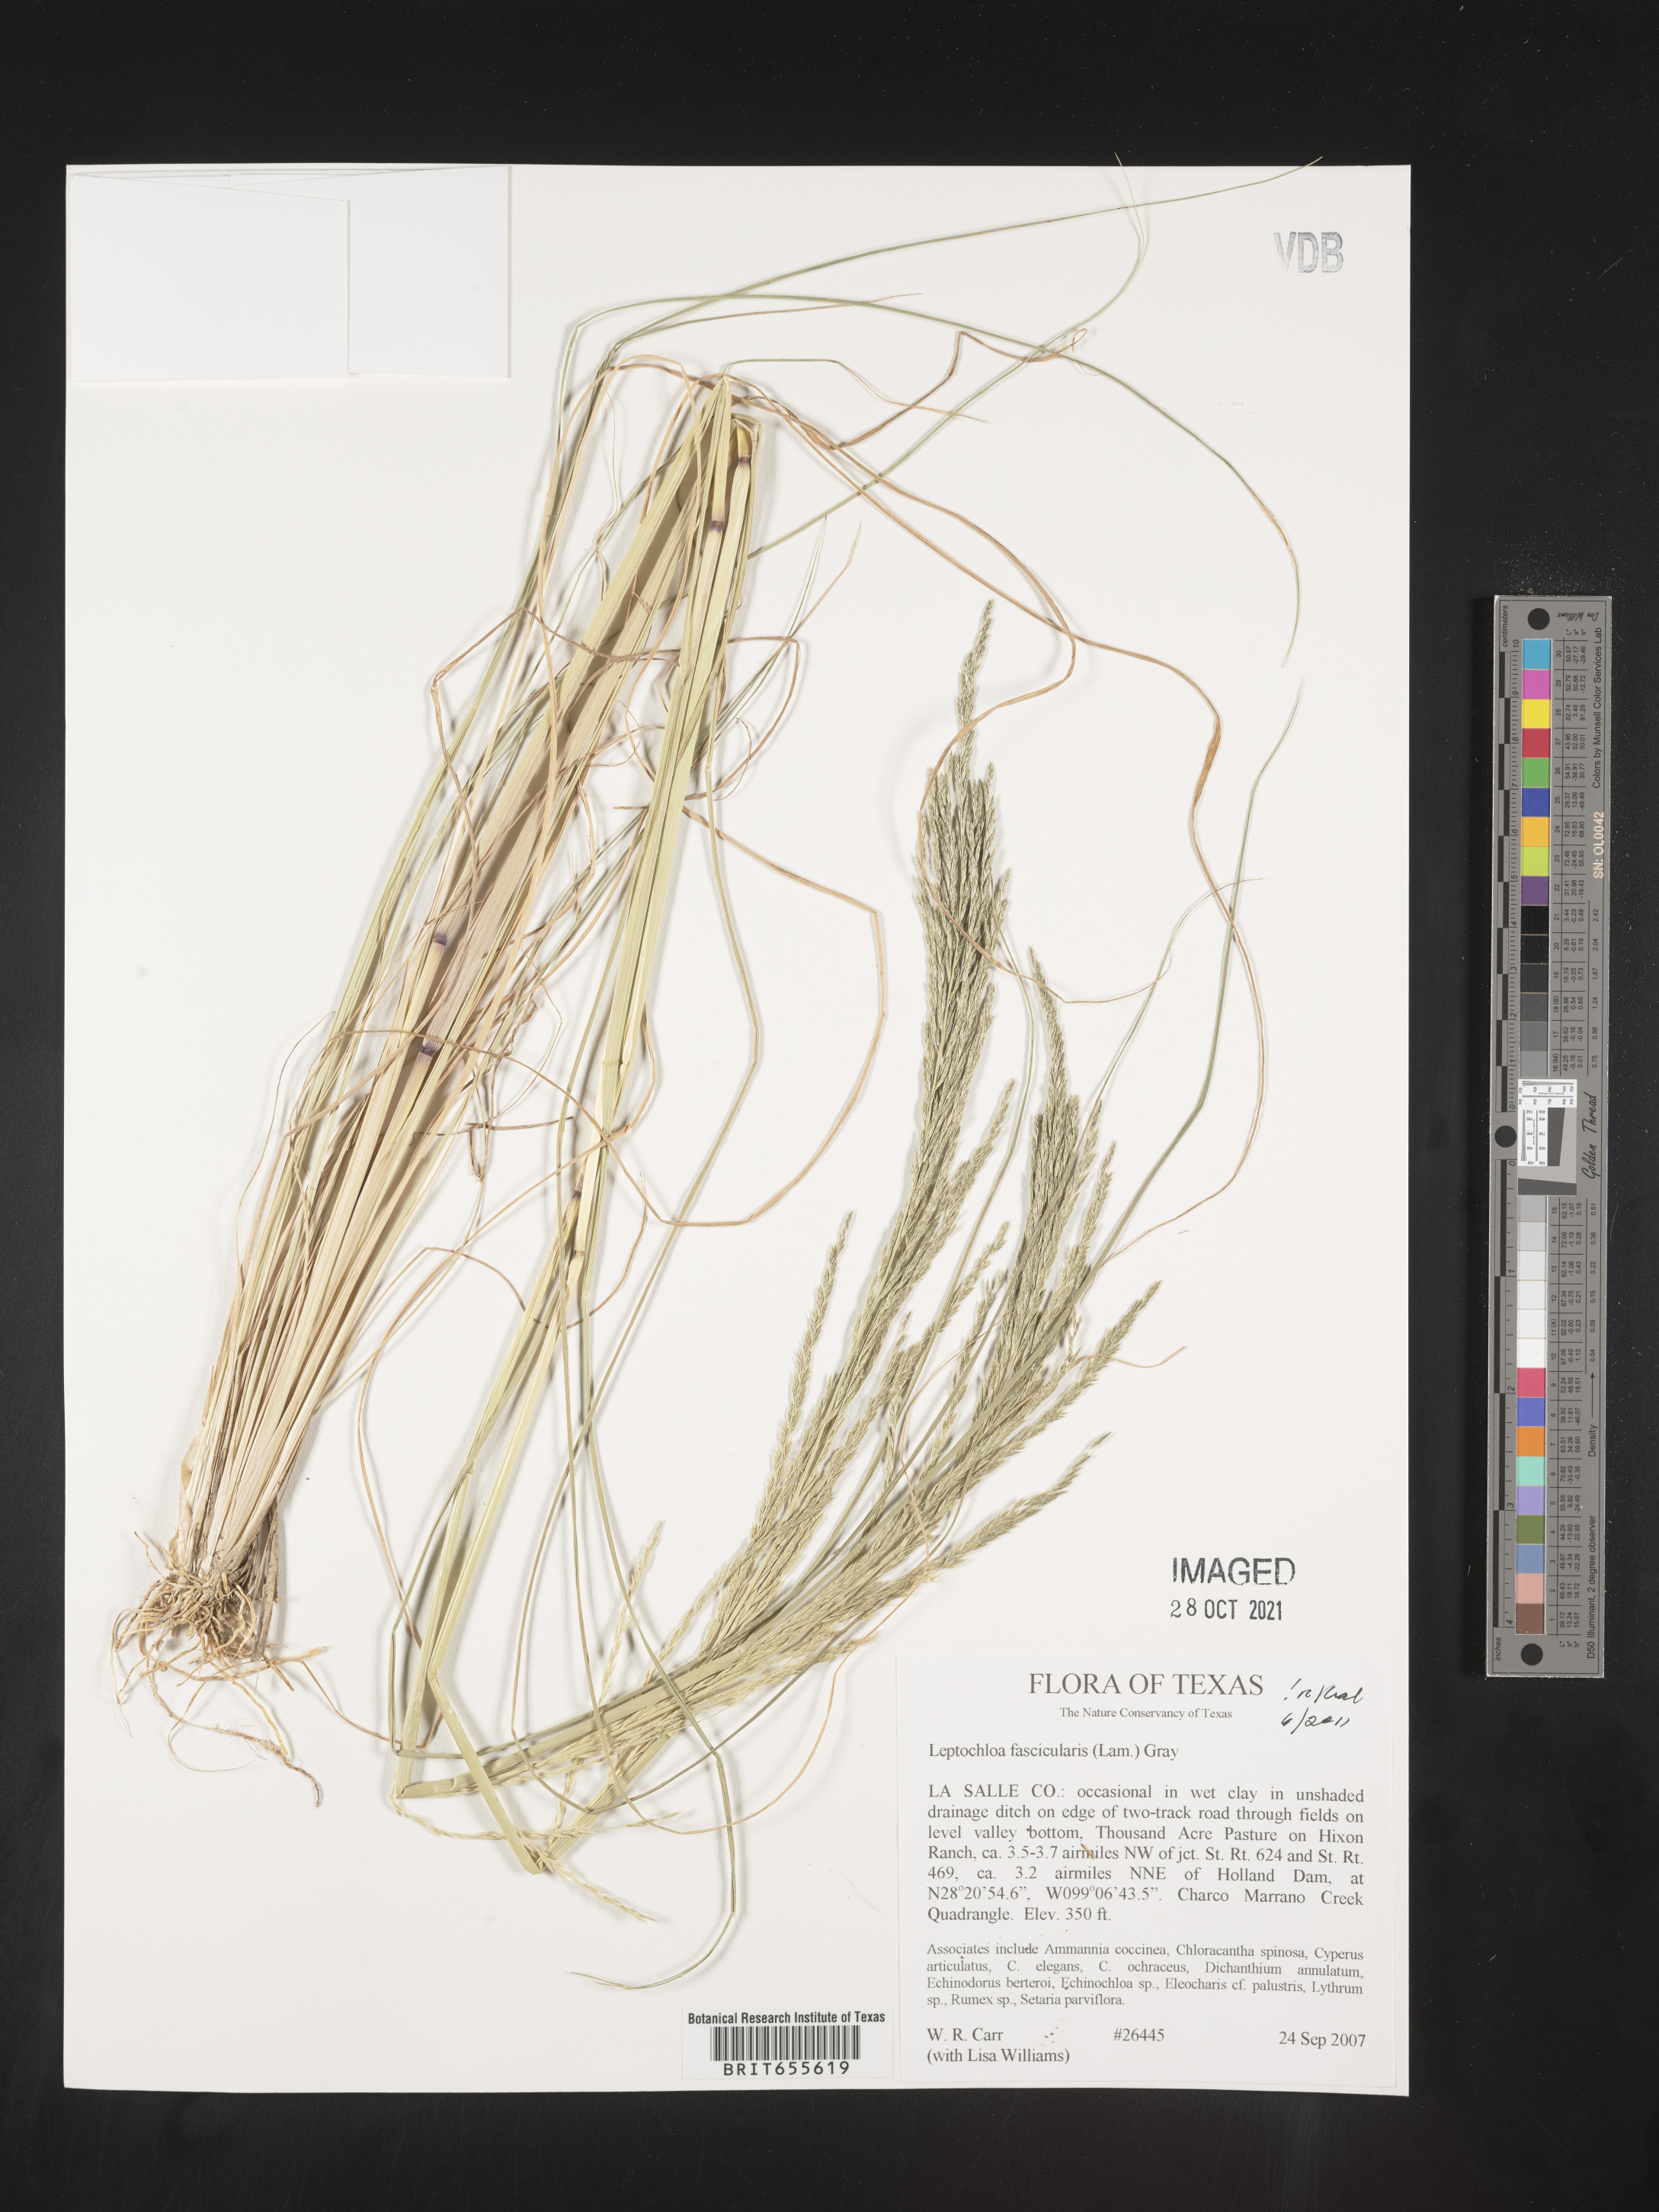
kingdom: Plantae
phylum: Tracheophyta
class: Liliopsida
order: Poales
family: Poaceae
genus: Diplachne
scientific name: Diplachne fusca
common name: Brown beetle grass
